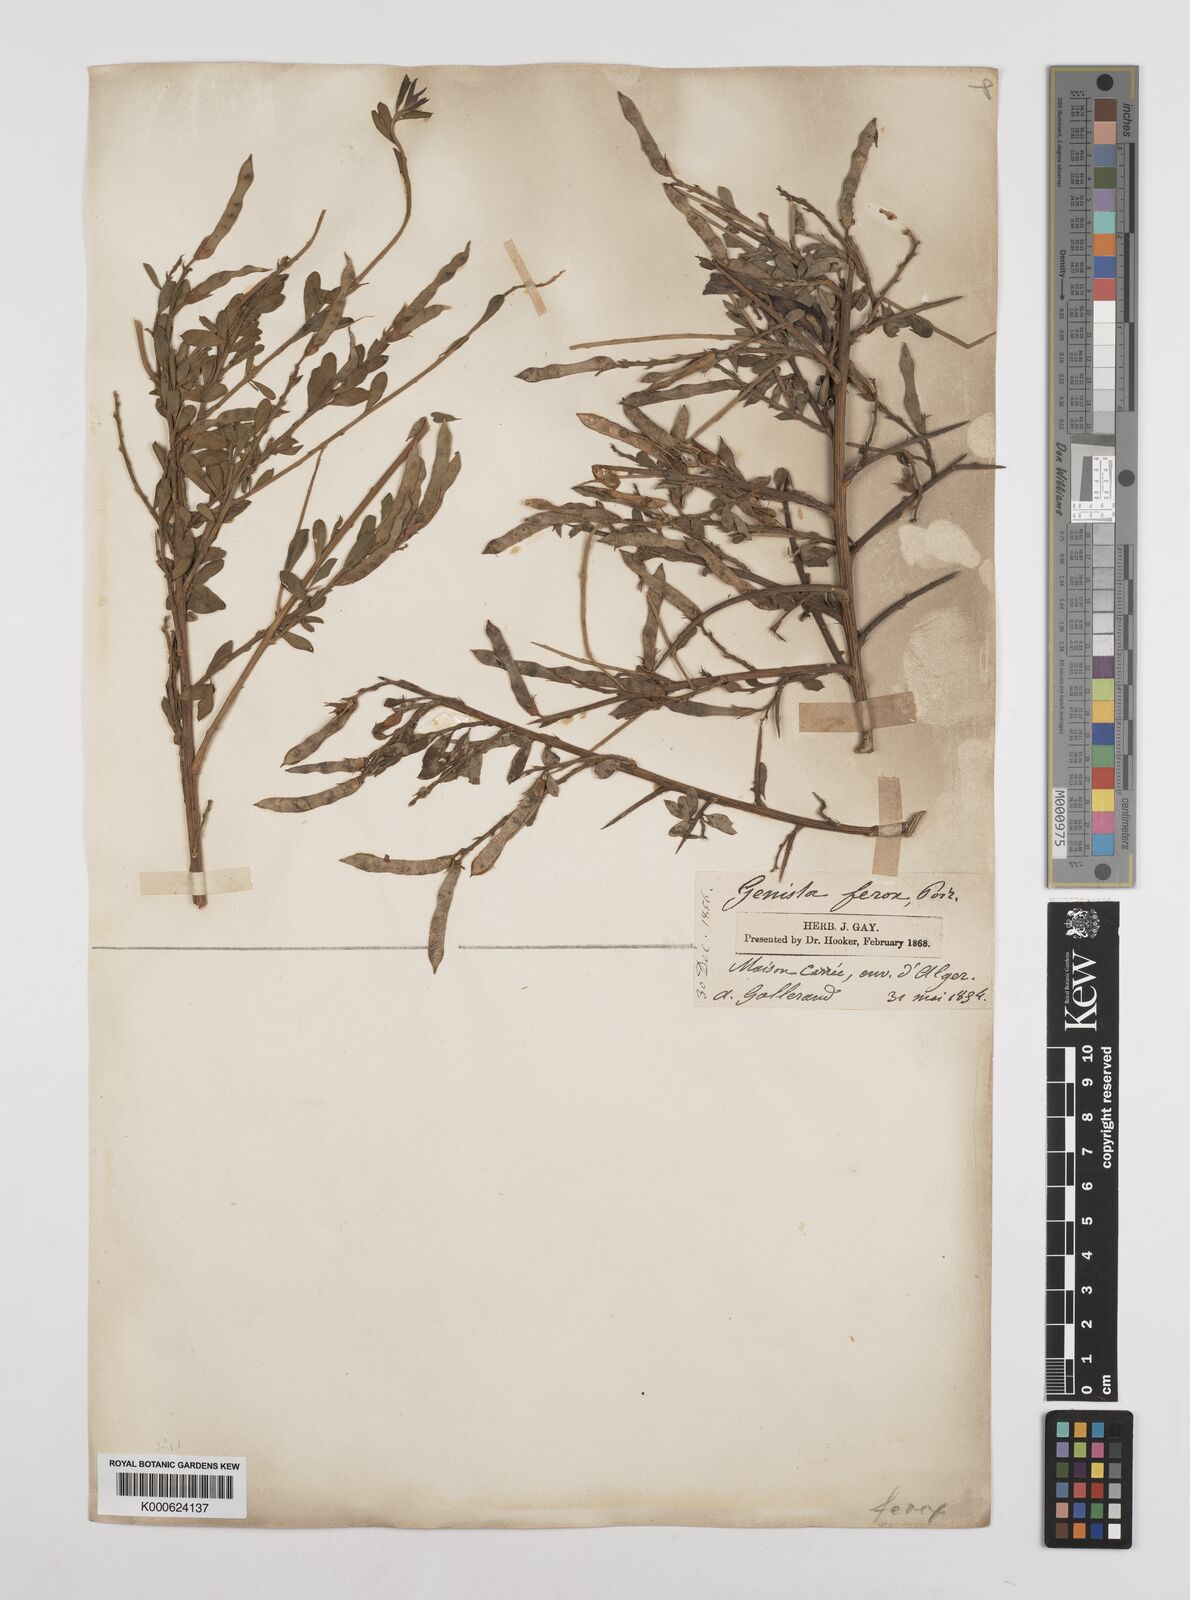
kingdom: Plantae
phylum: Tracheophyta
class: Magnoliopsida
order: Fabales
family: Fabaceae
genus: Genista
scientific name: Genista ferox
